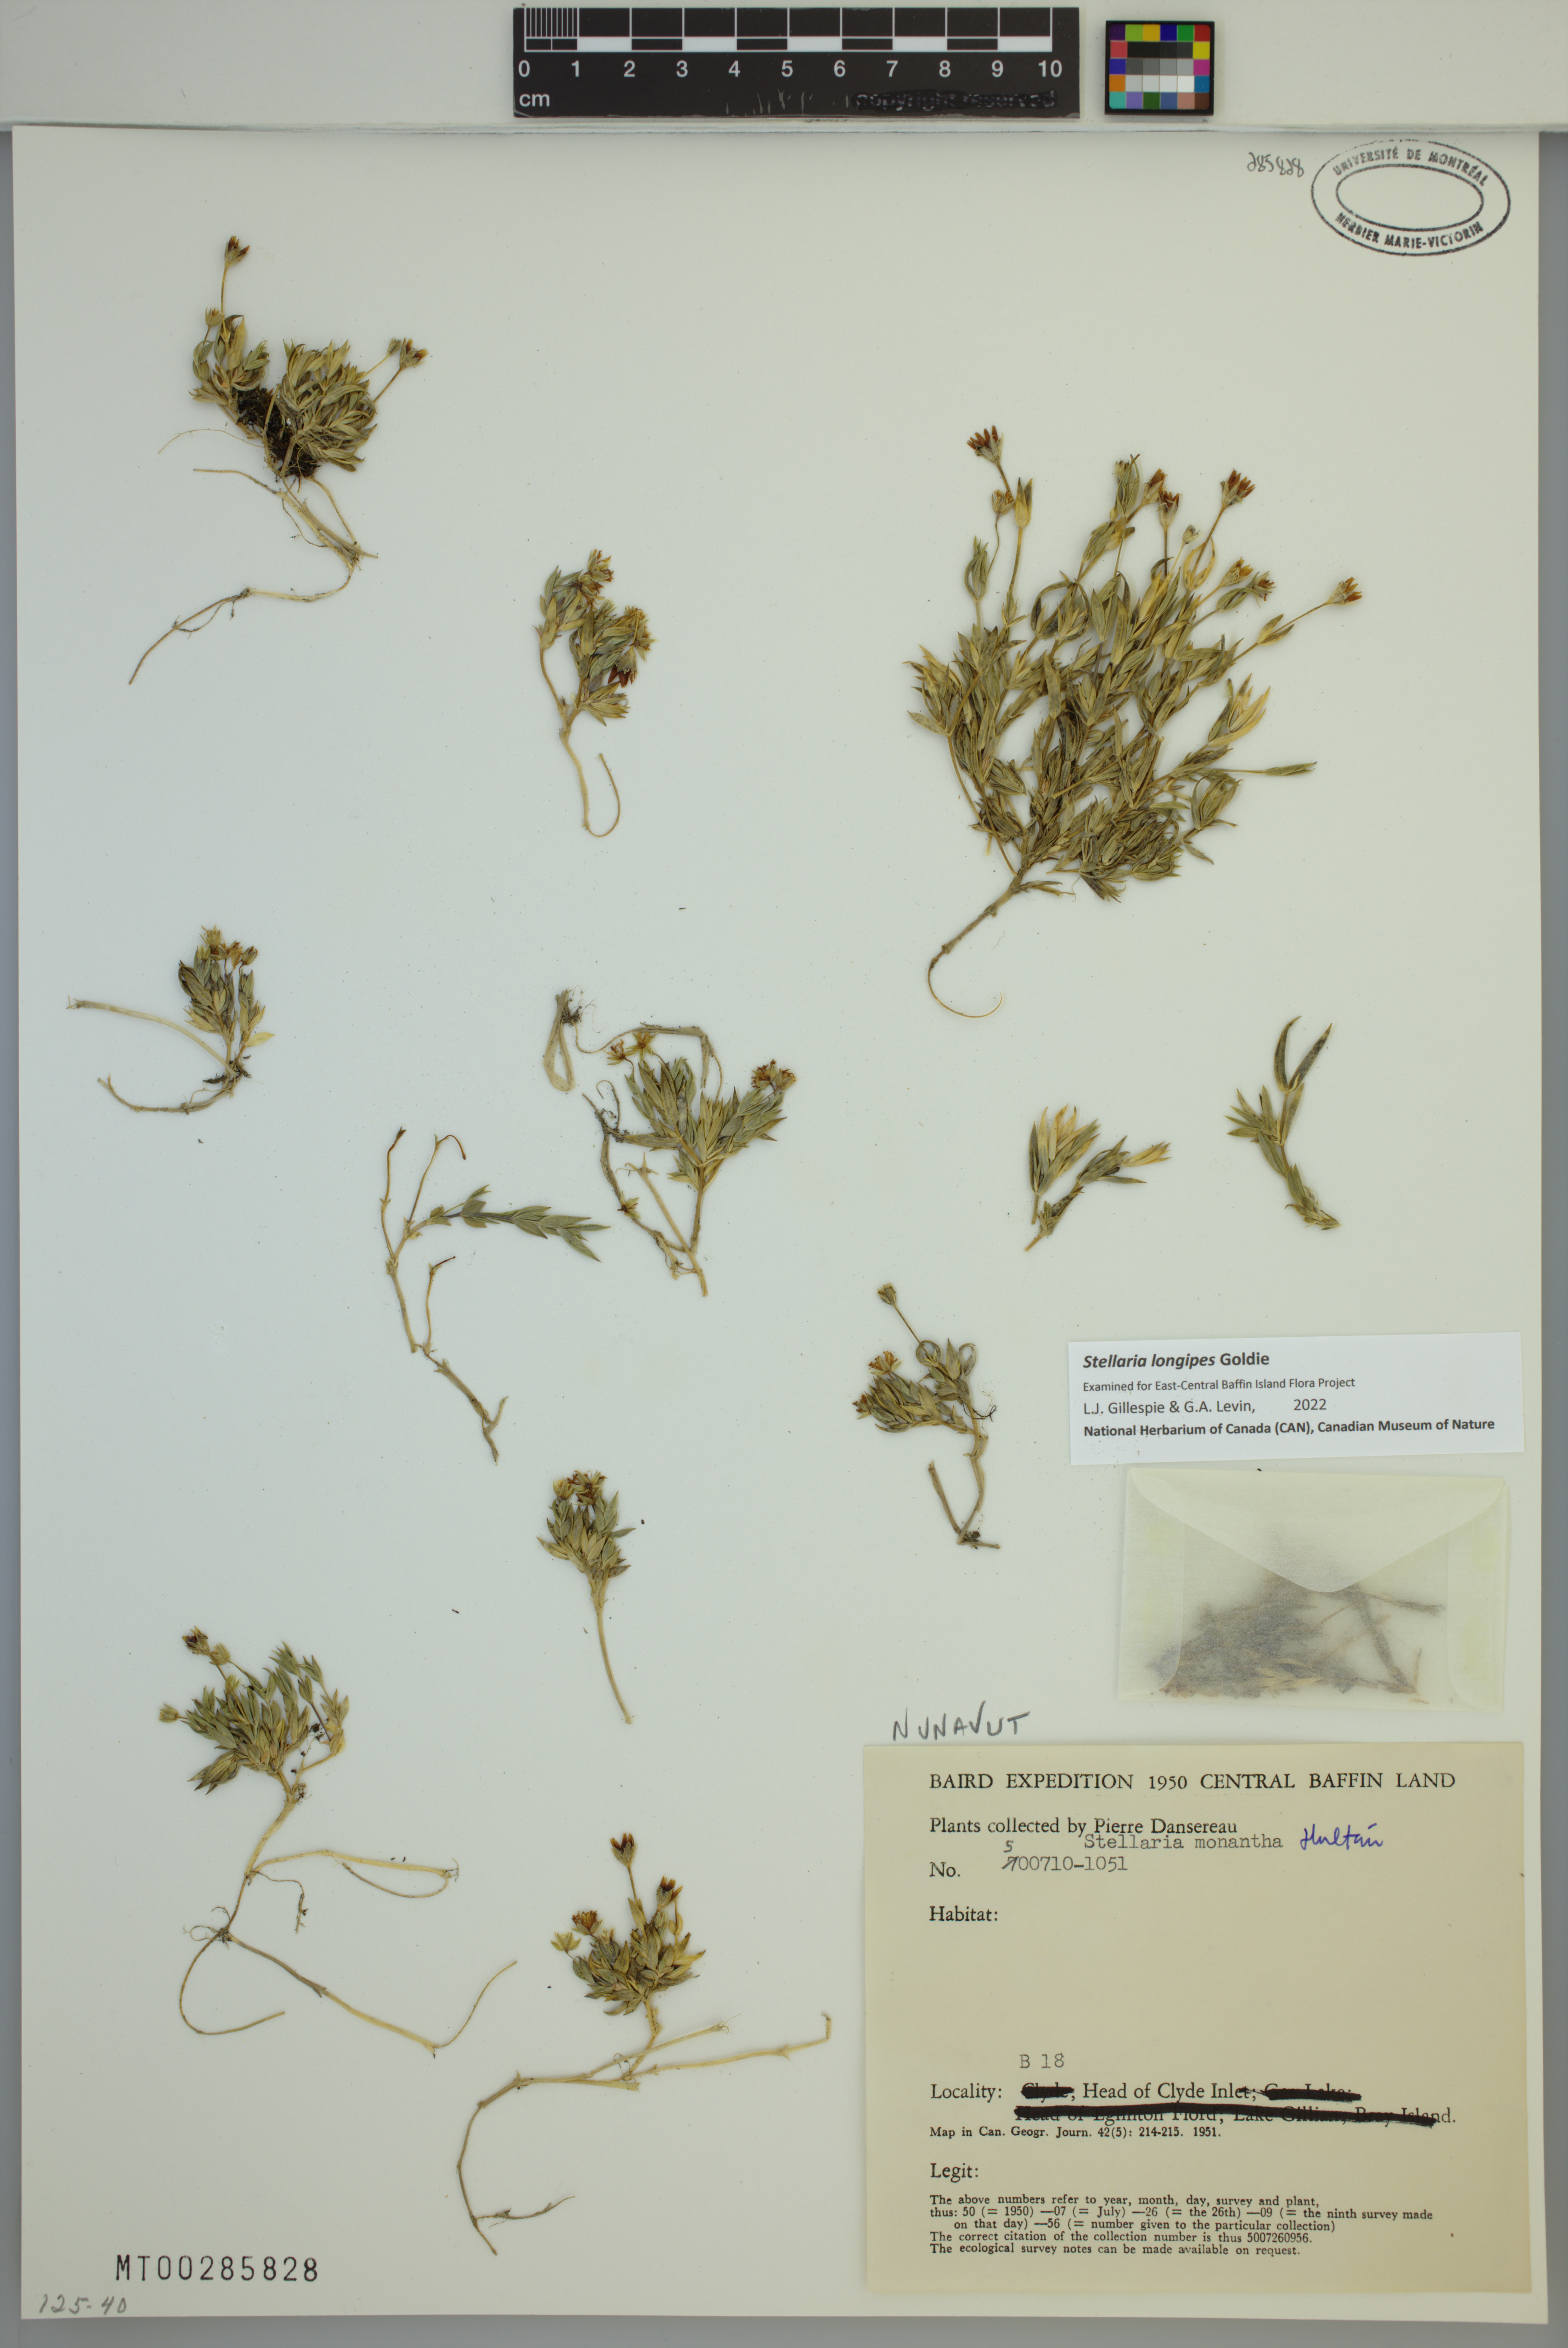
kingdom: Plantae
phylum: Tracheophyta
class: Magnoliopsida
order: Caryophyllales
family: Caryophyllaceae
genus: Stellaria
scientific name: Stellaria longipes
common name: Goldie's starwort
